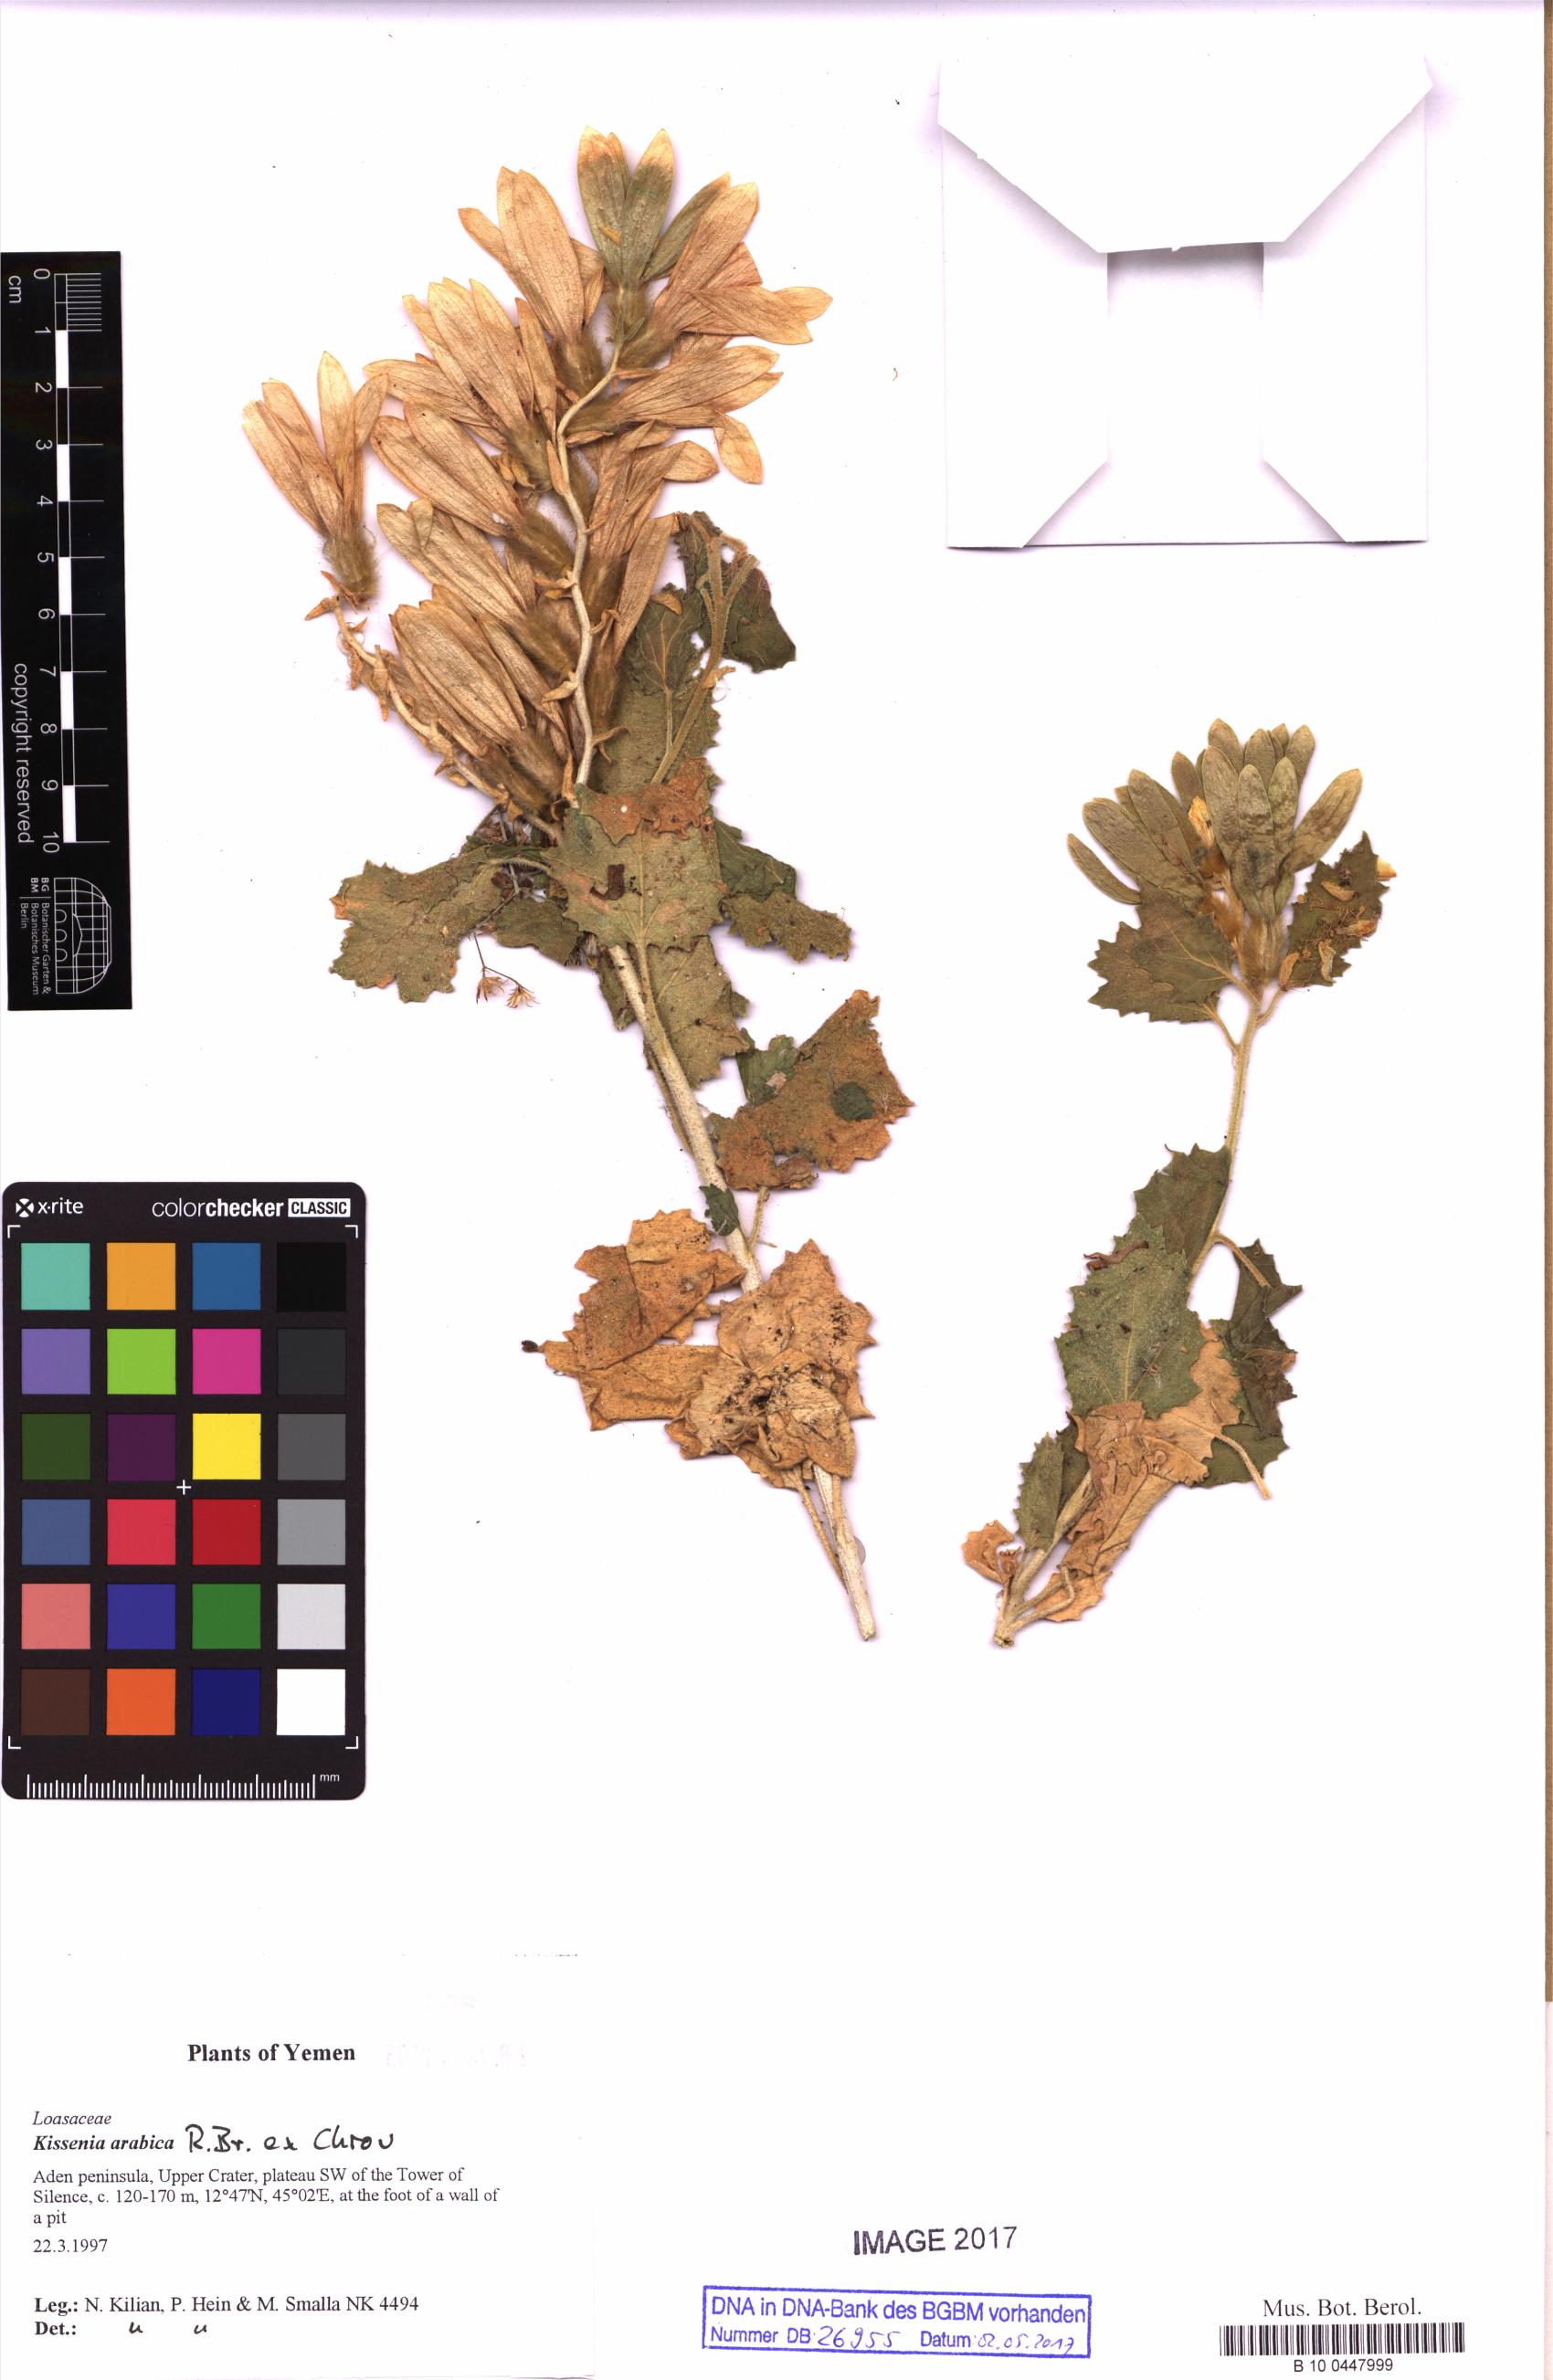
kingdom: Plantae
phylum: Tracheophyta
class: Magnoliopsida
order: Cornales
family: Loasaceae
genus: Kissenia
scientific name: Kissenia arabica
